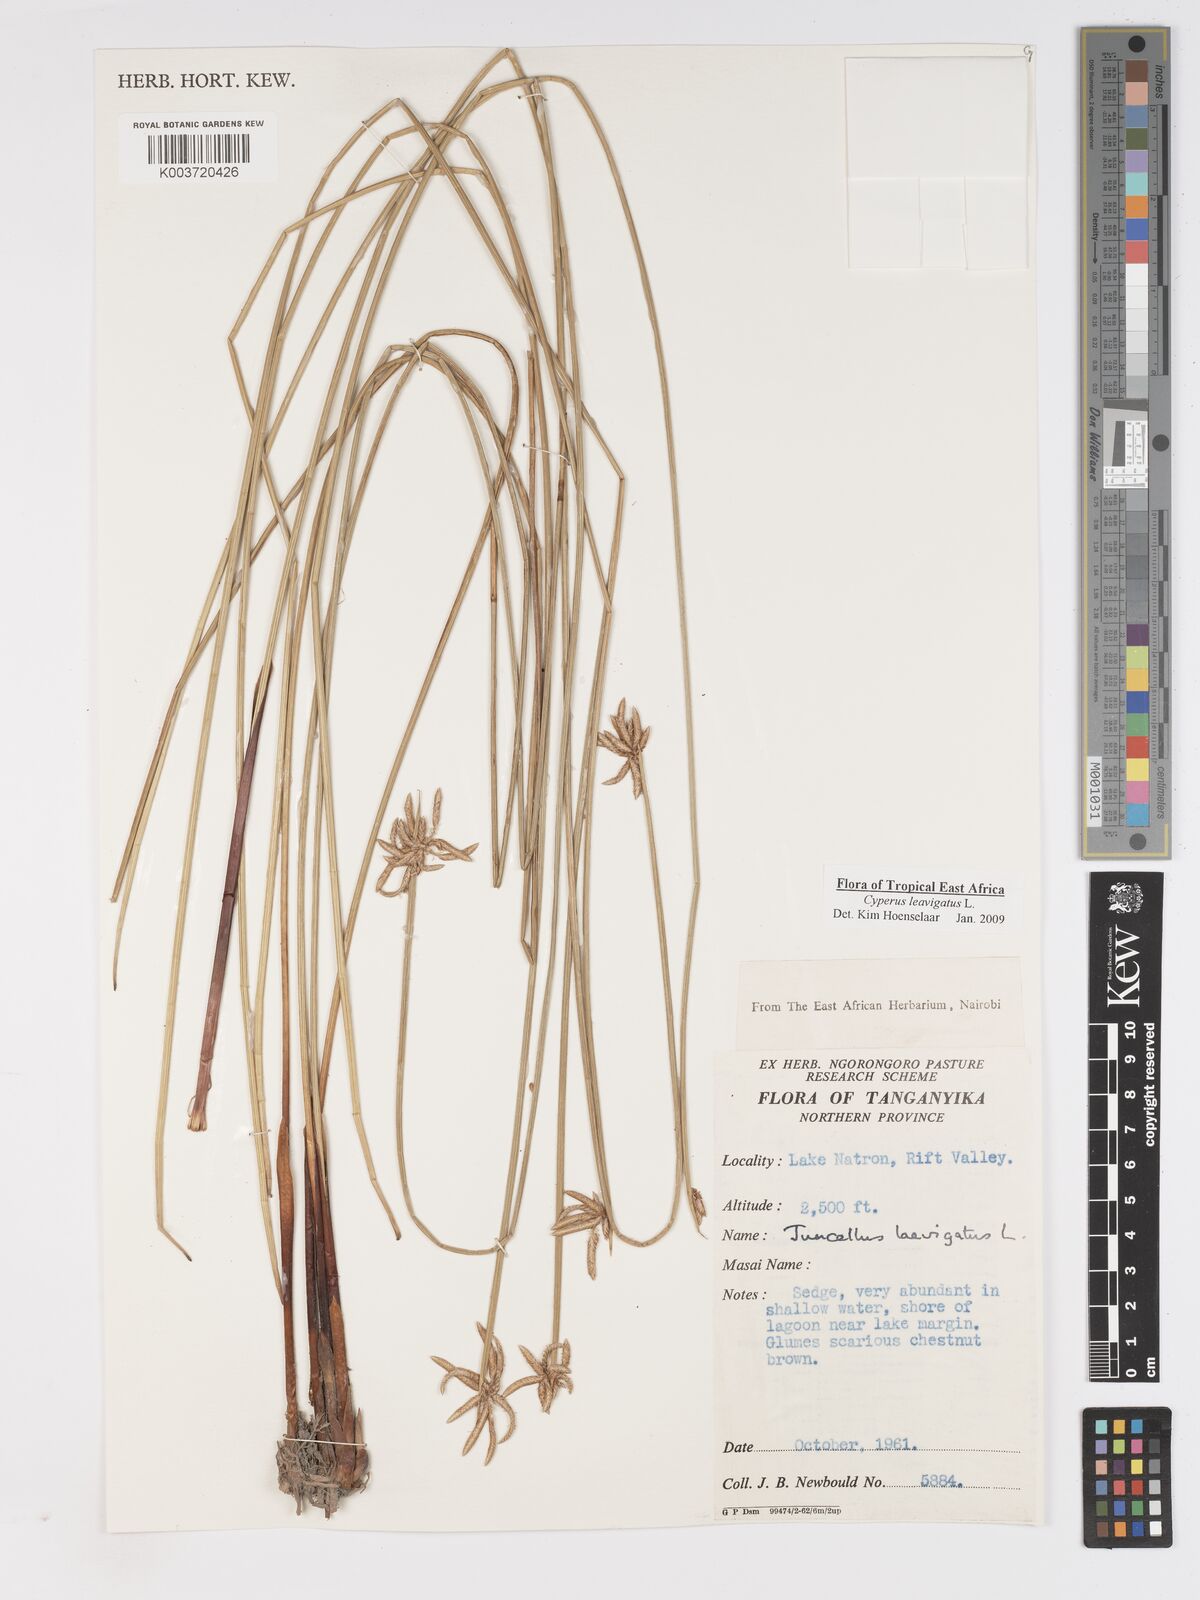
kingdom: Plantae
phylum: Tracheophyta
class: Liliopsida
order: Poales
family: Cyperaceae
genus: Cyperus
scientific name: Cyperus laevigatus
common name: Smooth flat sedge
